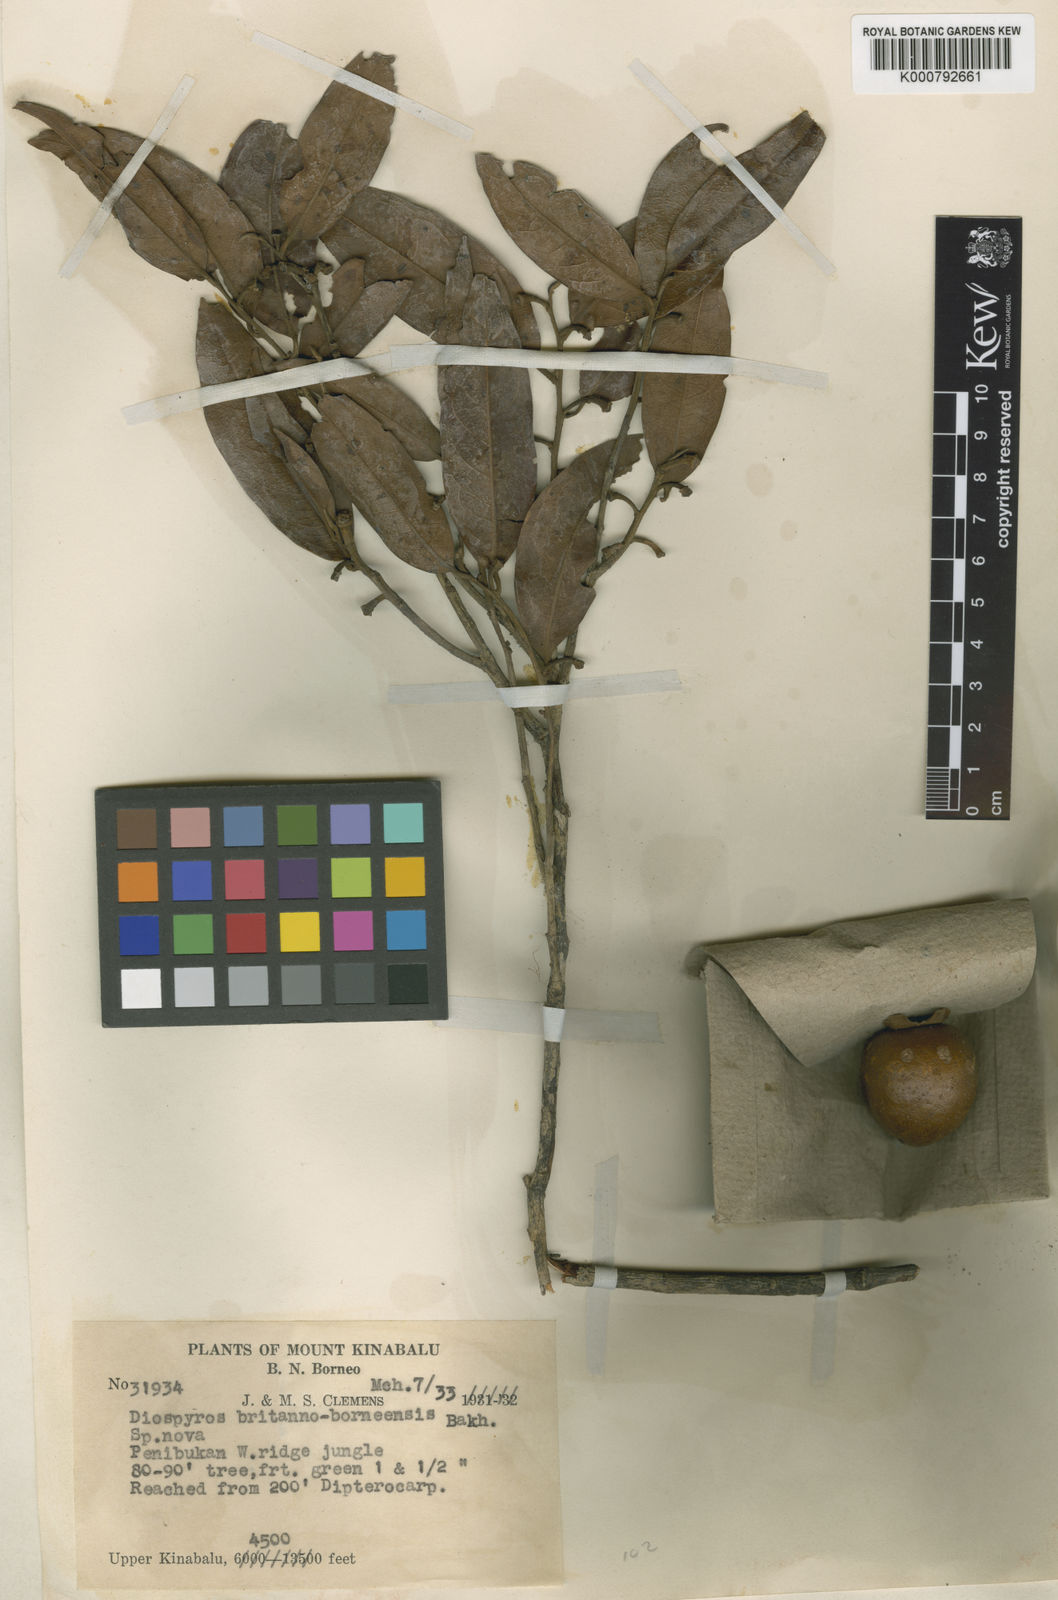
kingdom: Plantae
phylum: Tracheophyta
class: Magnoliopsida
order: Ericales
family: Ebenaceae
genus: Diospyros
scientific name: Diospyros britannoborneensis
